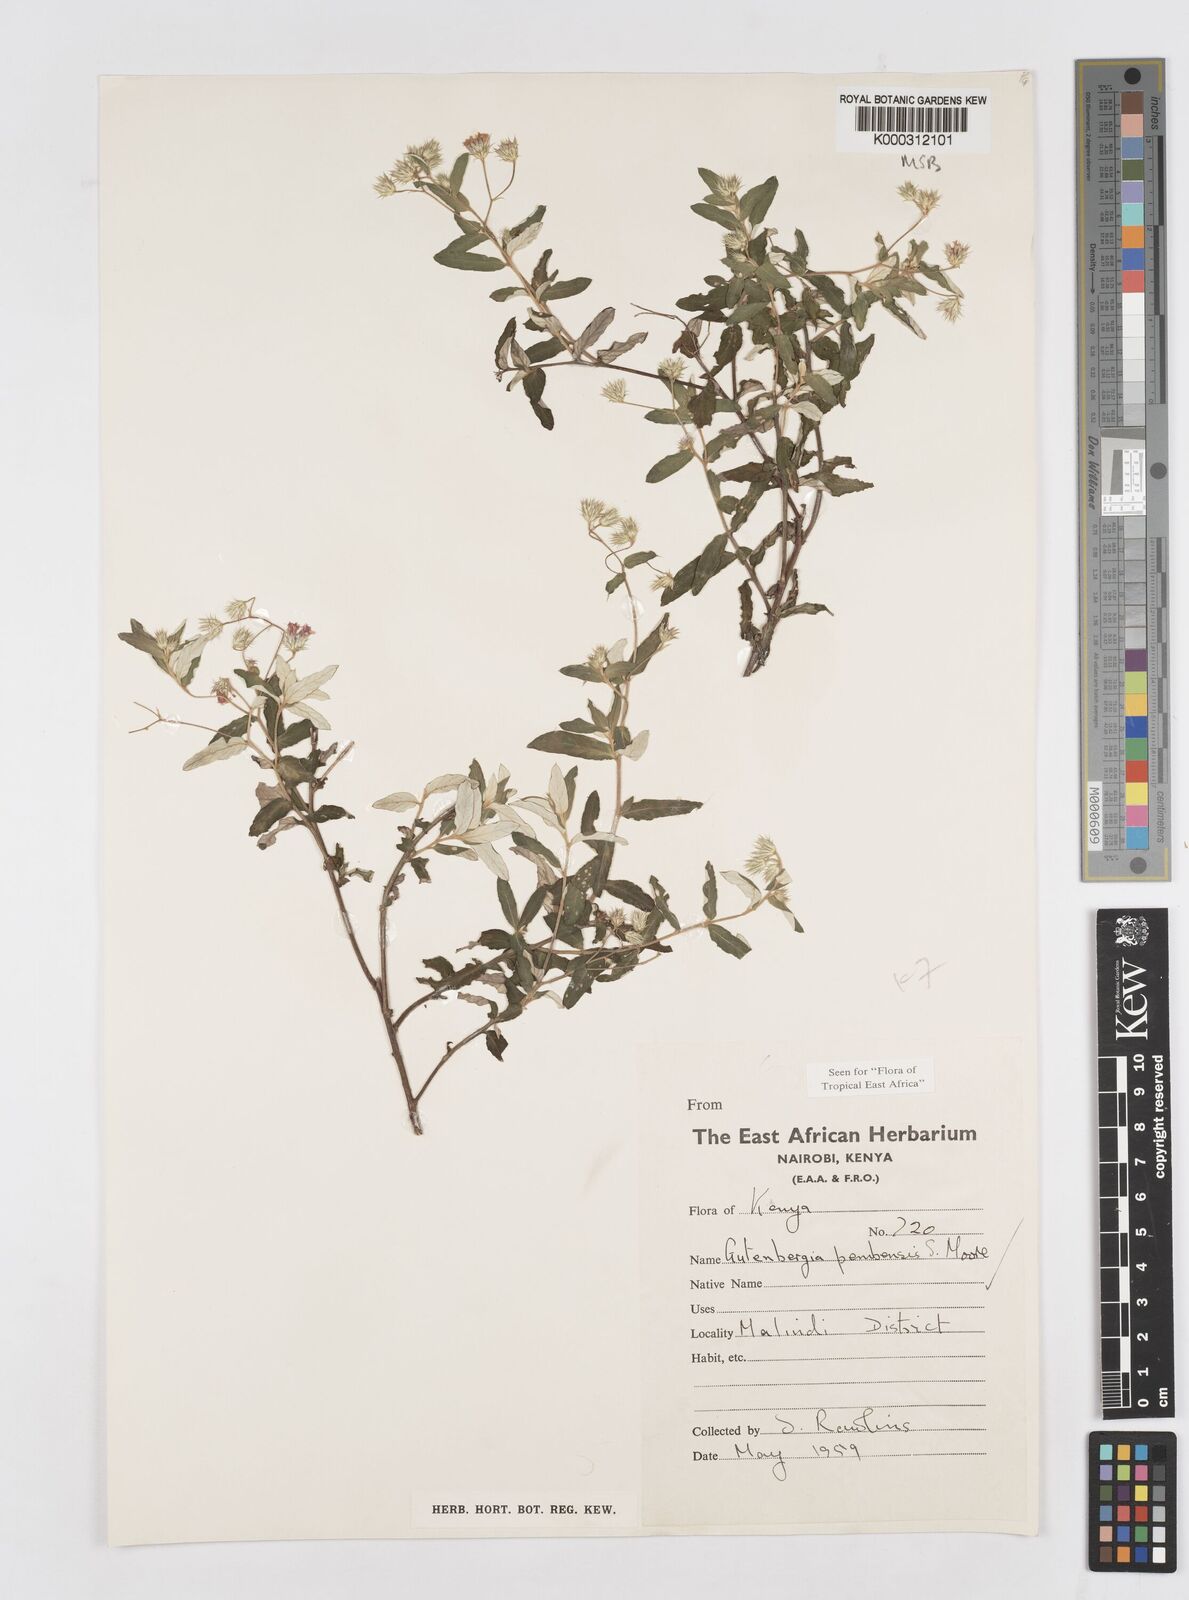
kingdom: Plantae
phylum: Tracheophyta
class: Magnoliopsida
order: Asterales
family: Asteraceae
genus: Gutenbergia
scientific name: Gutenbergia pembensis
